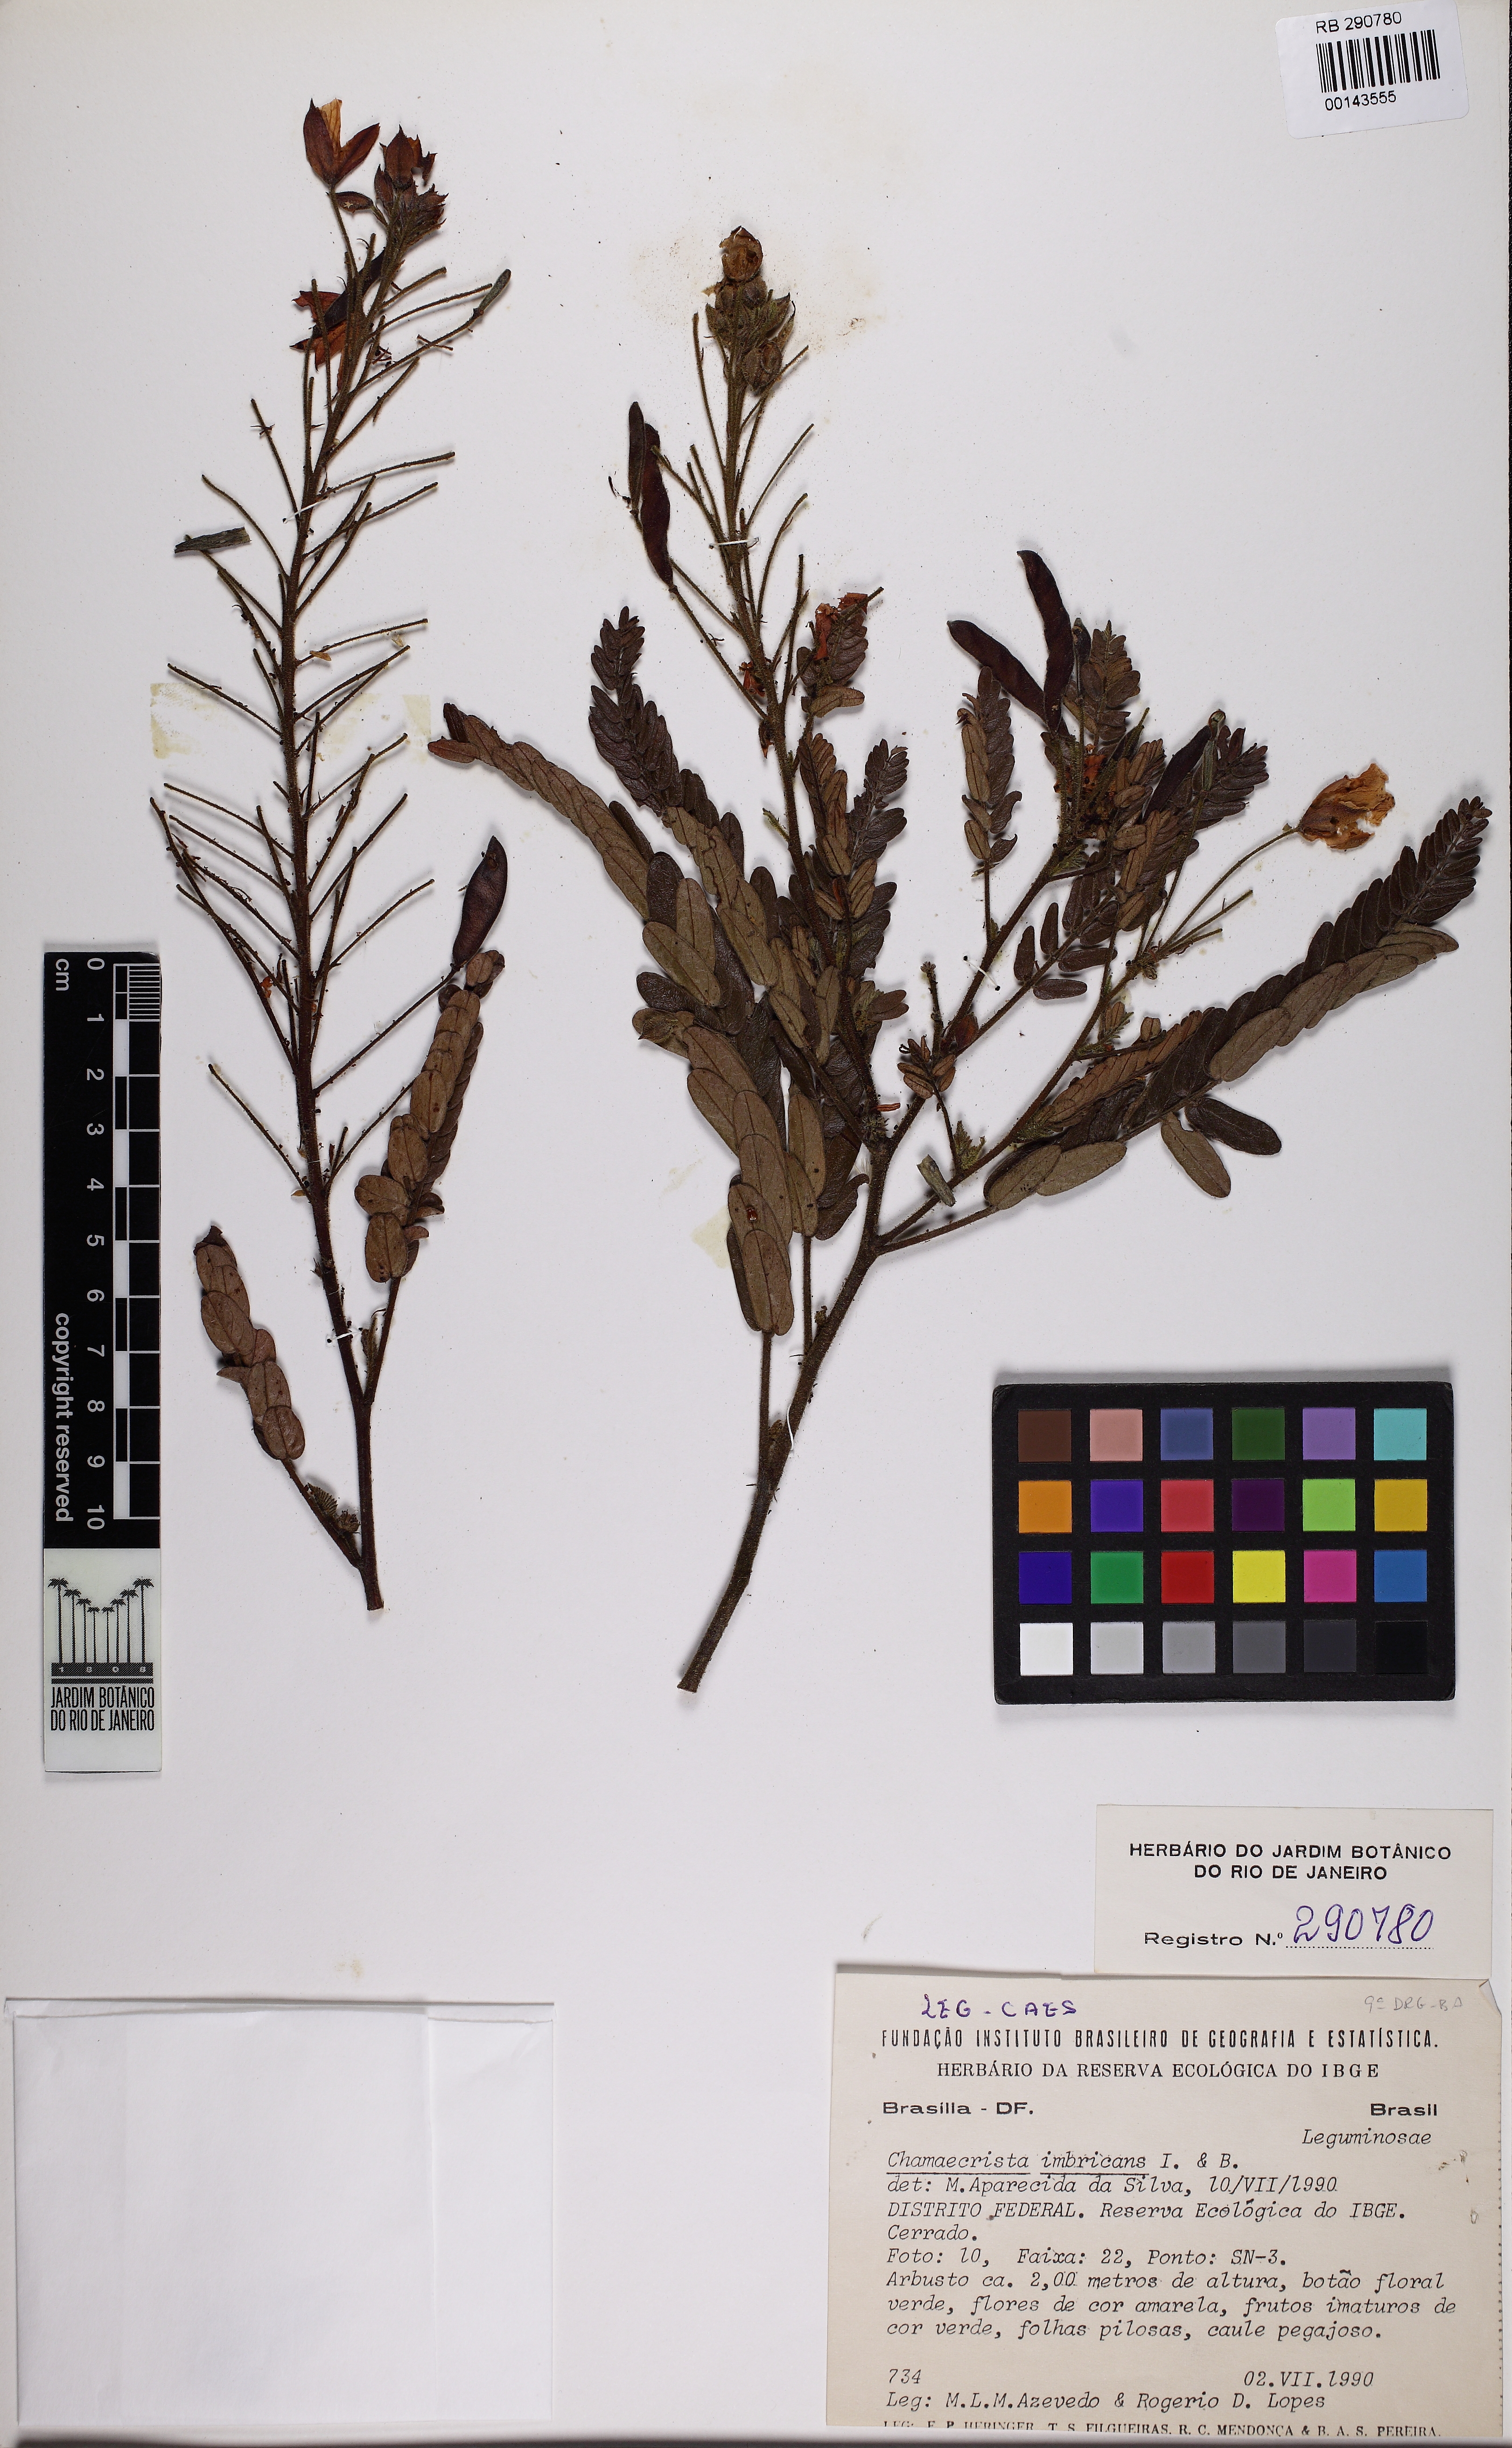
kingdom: Plantae
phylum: Tracheophyta
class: Magnoliopsida
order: Fabales
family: Fabaceae
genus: Chamaecrista
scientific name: Chamaecrista imbricans
